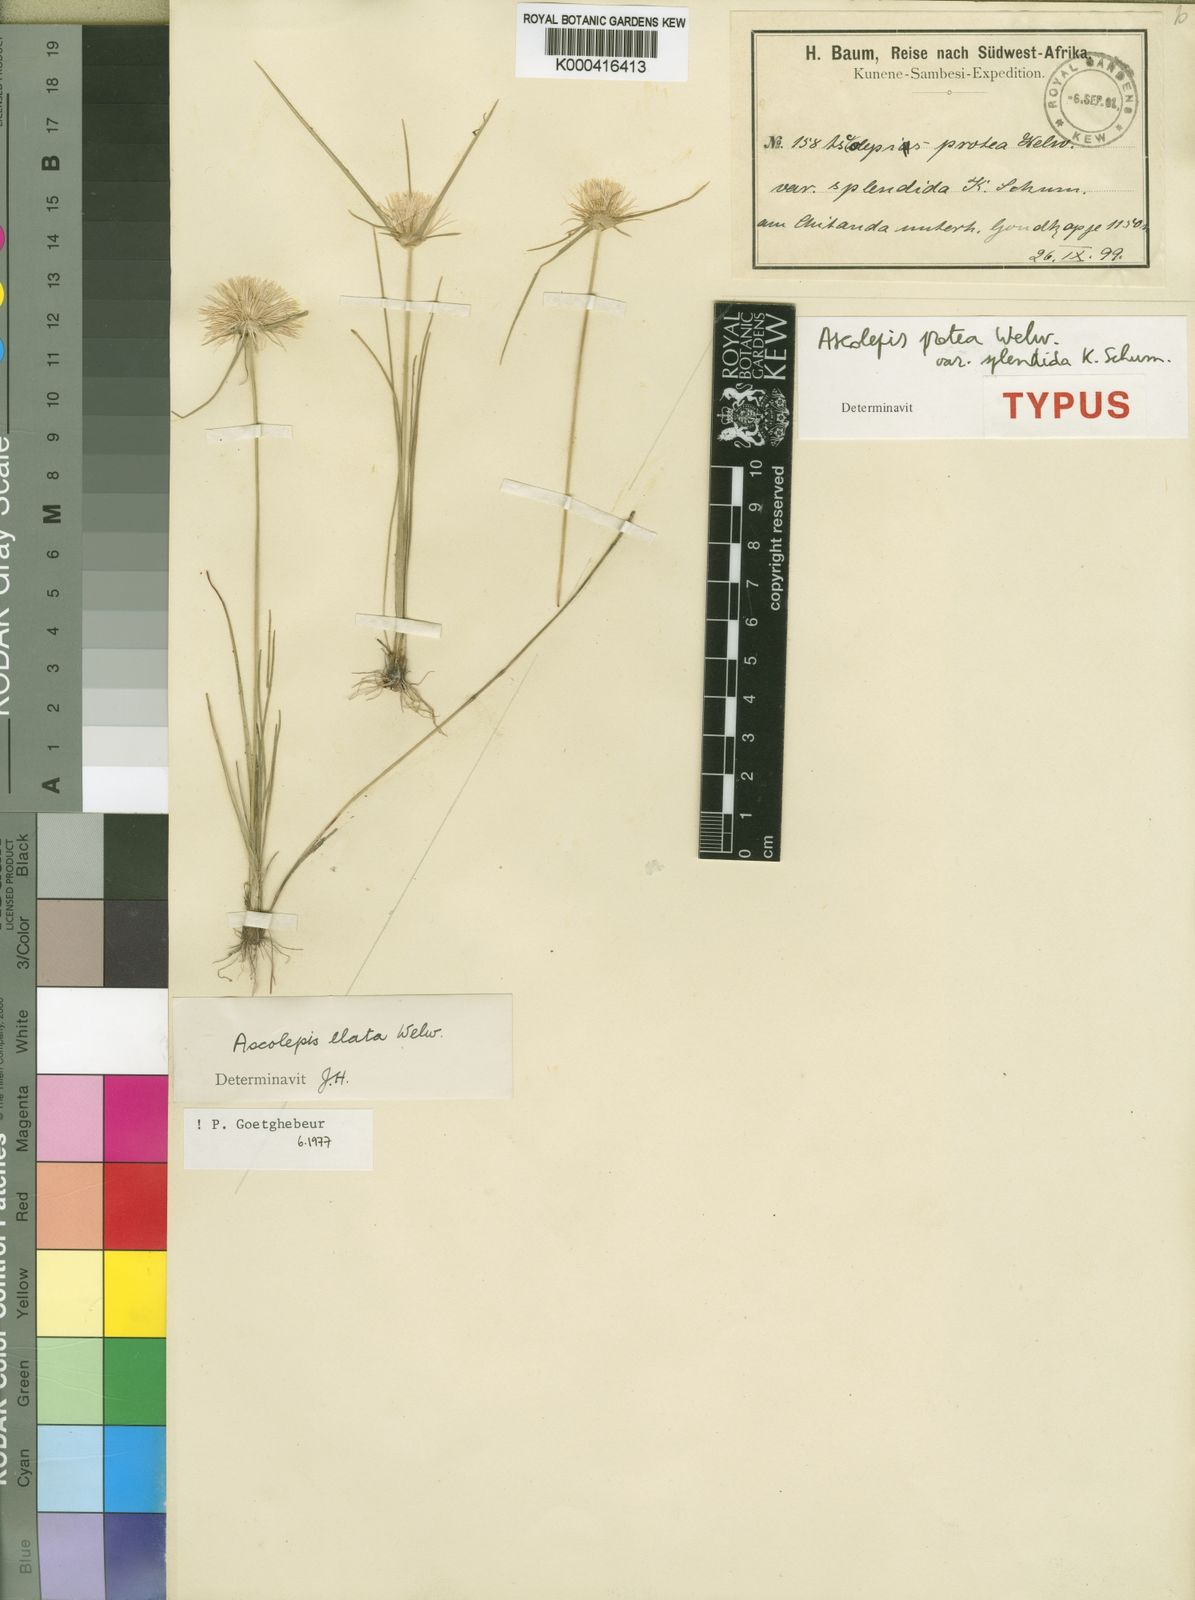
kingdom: Plantae
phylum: Tracheophyta
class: Liliopsida
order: Poales
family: Cyperaceae
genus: Cyperus
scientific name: Cyperus proteus
